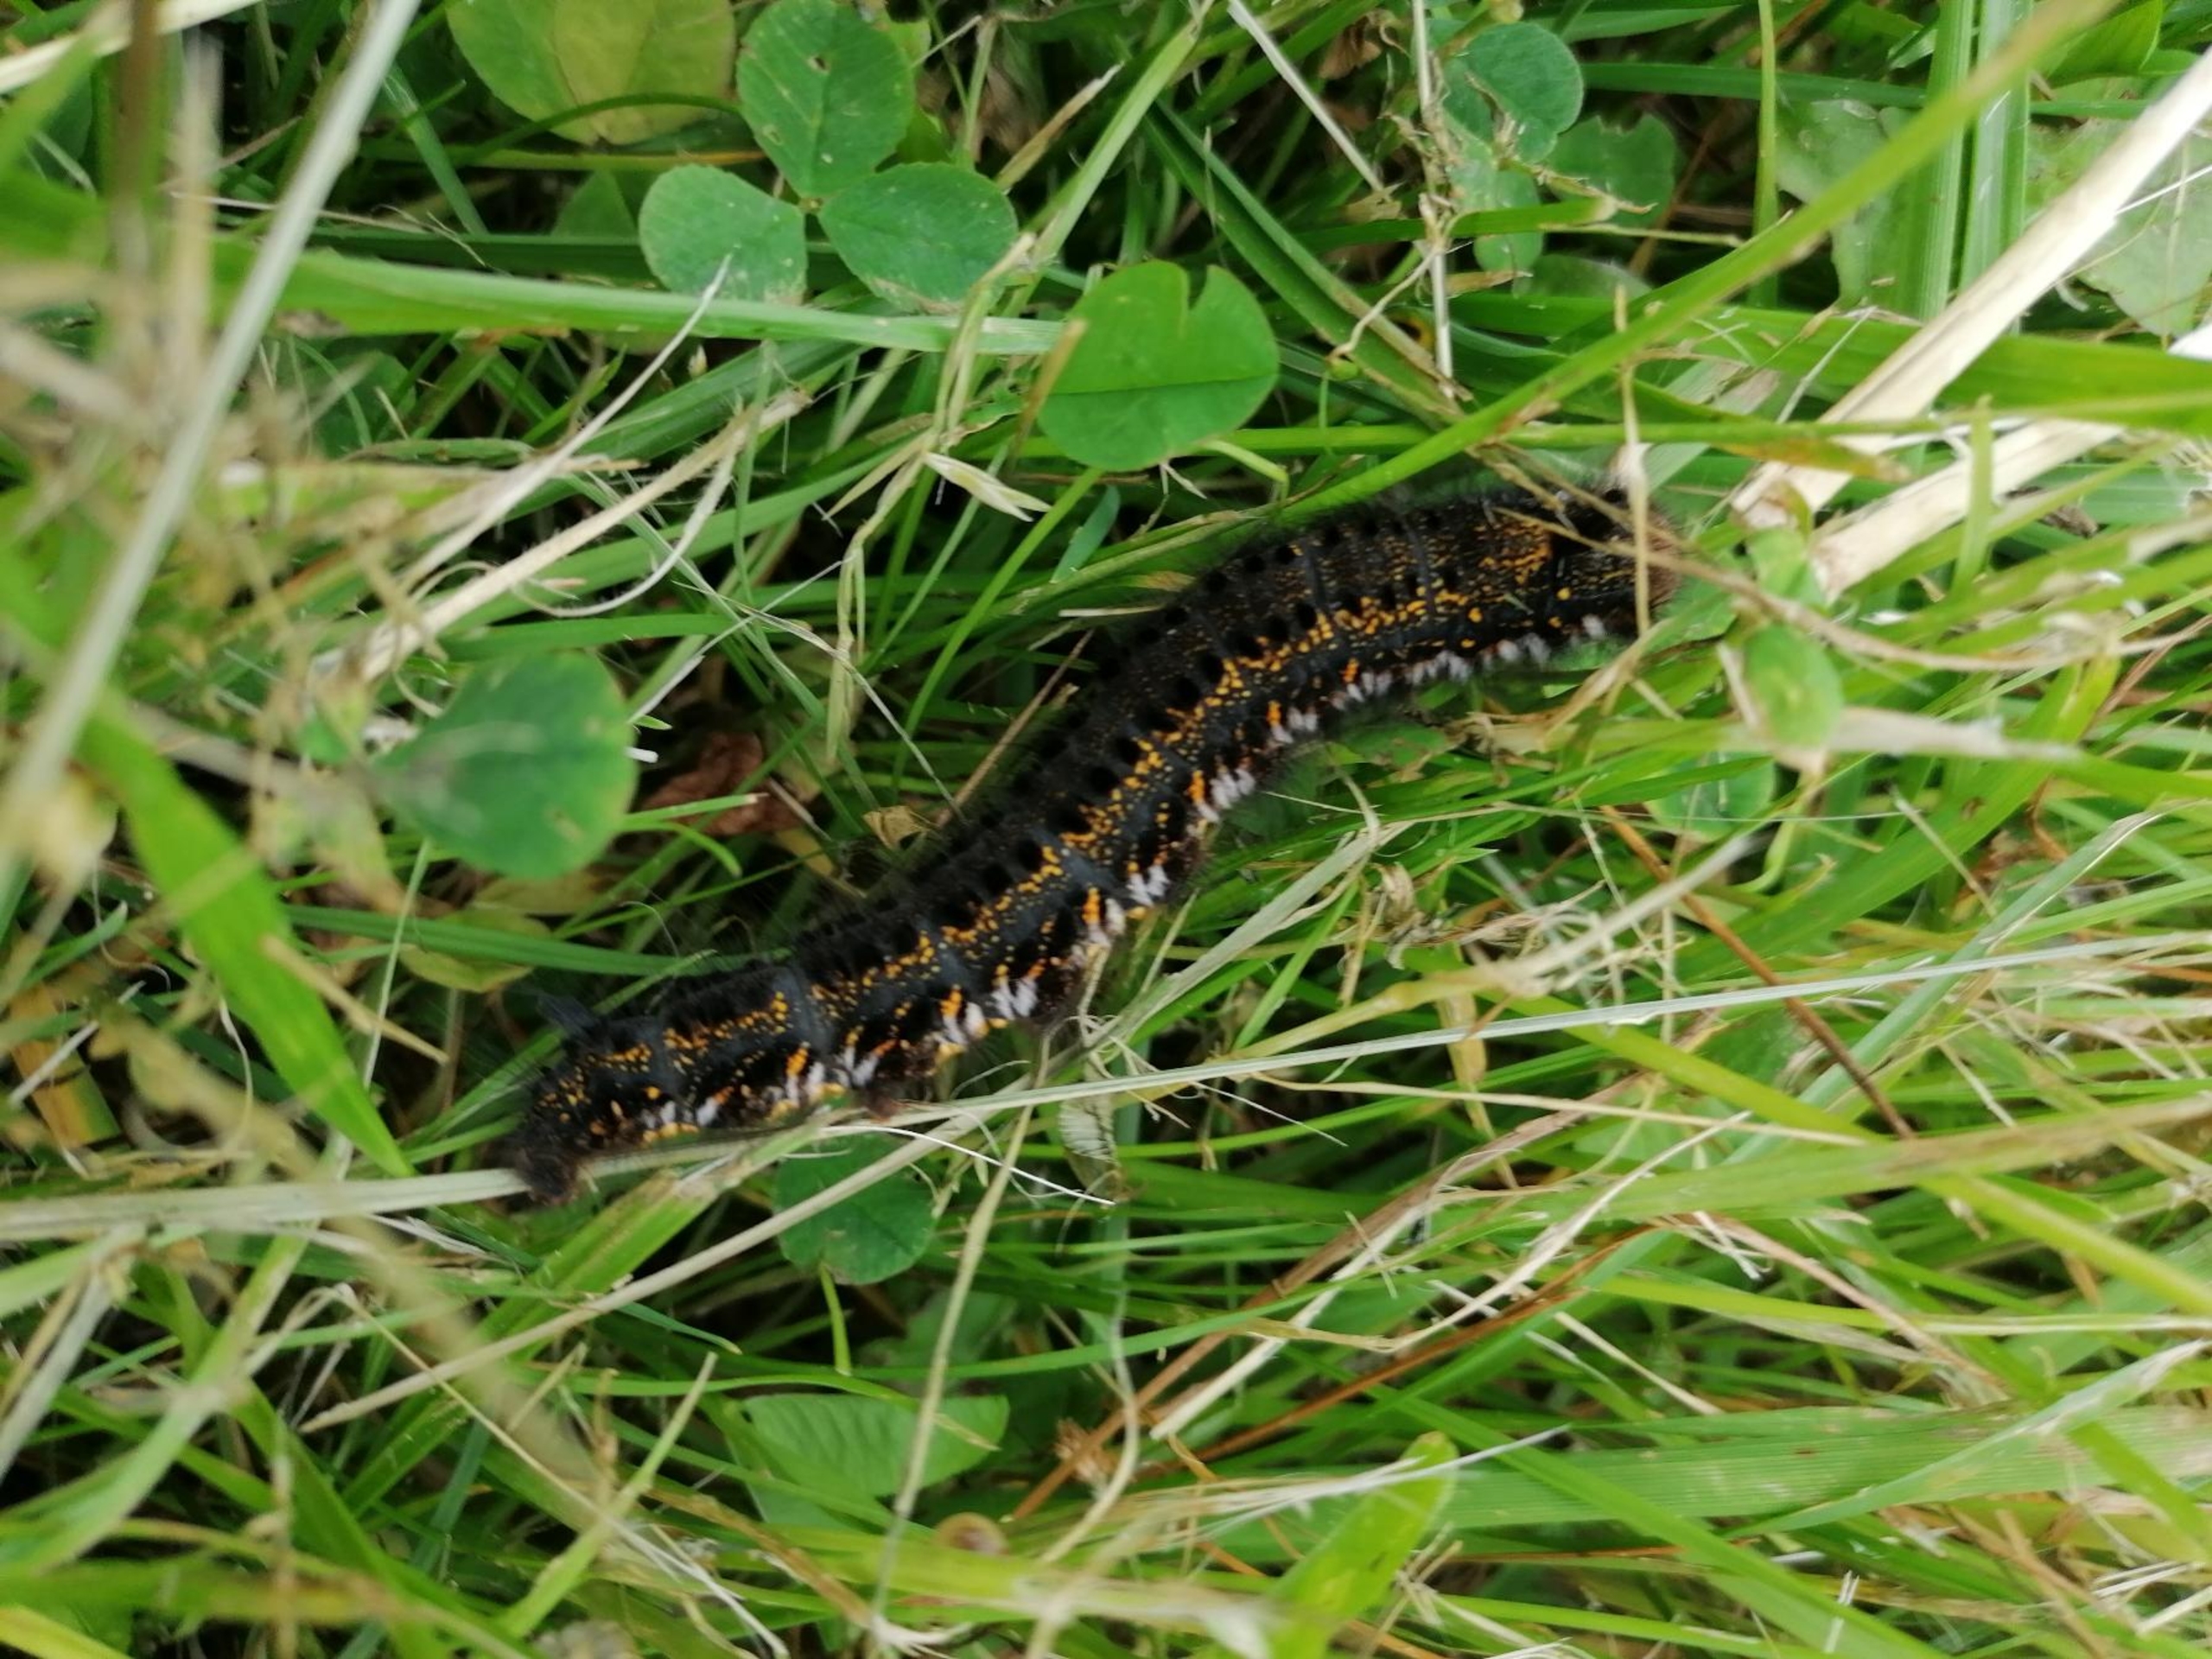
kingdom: Animalia
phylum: Arthropoda
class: Insecta
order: Lepidoptera
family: Lasiocampidae
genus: Euthrix
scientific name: Euthrix potatoria
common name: Græsspinder
